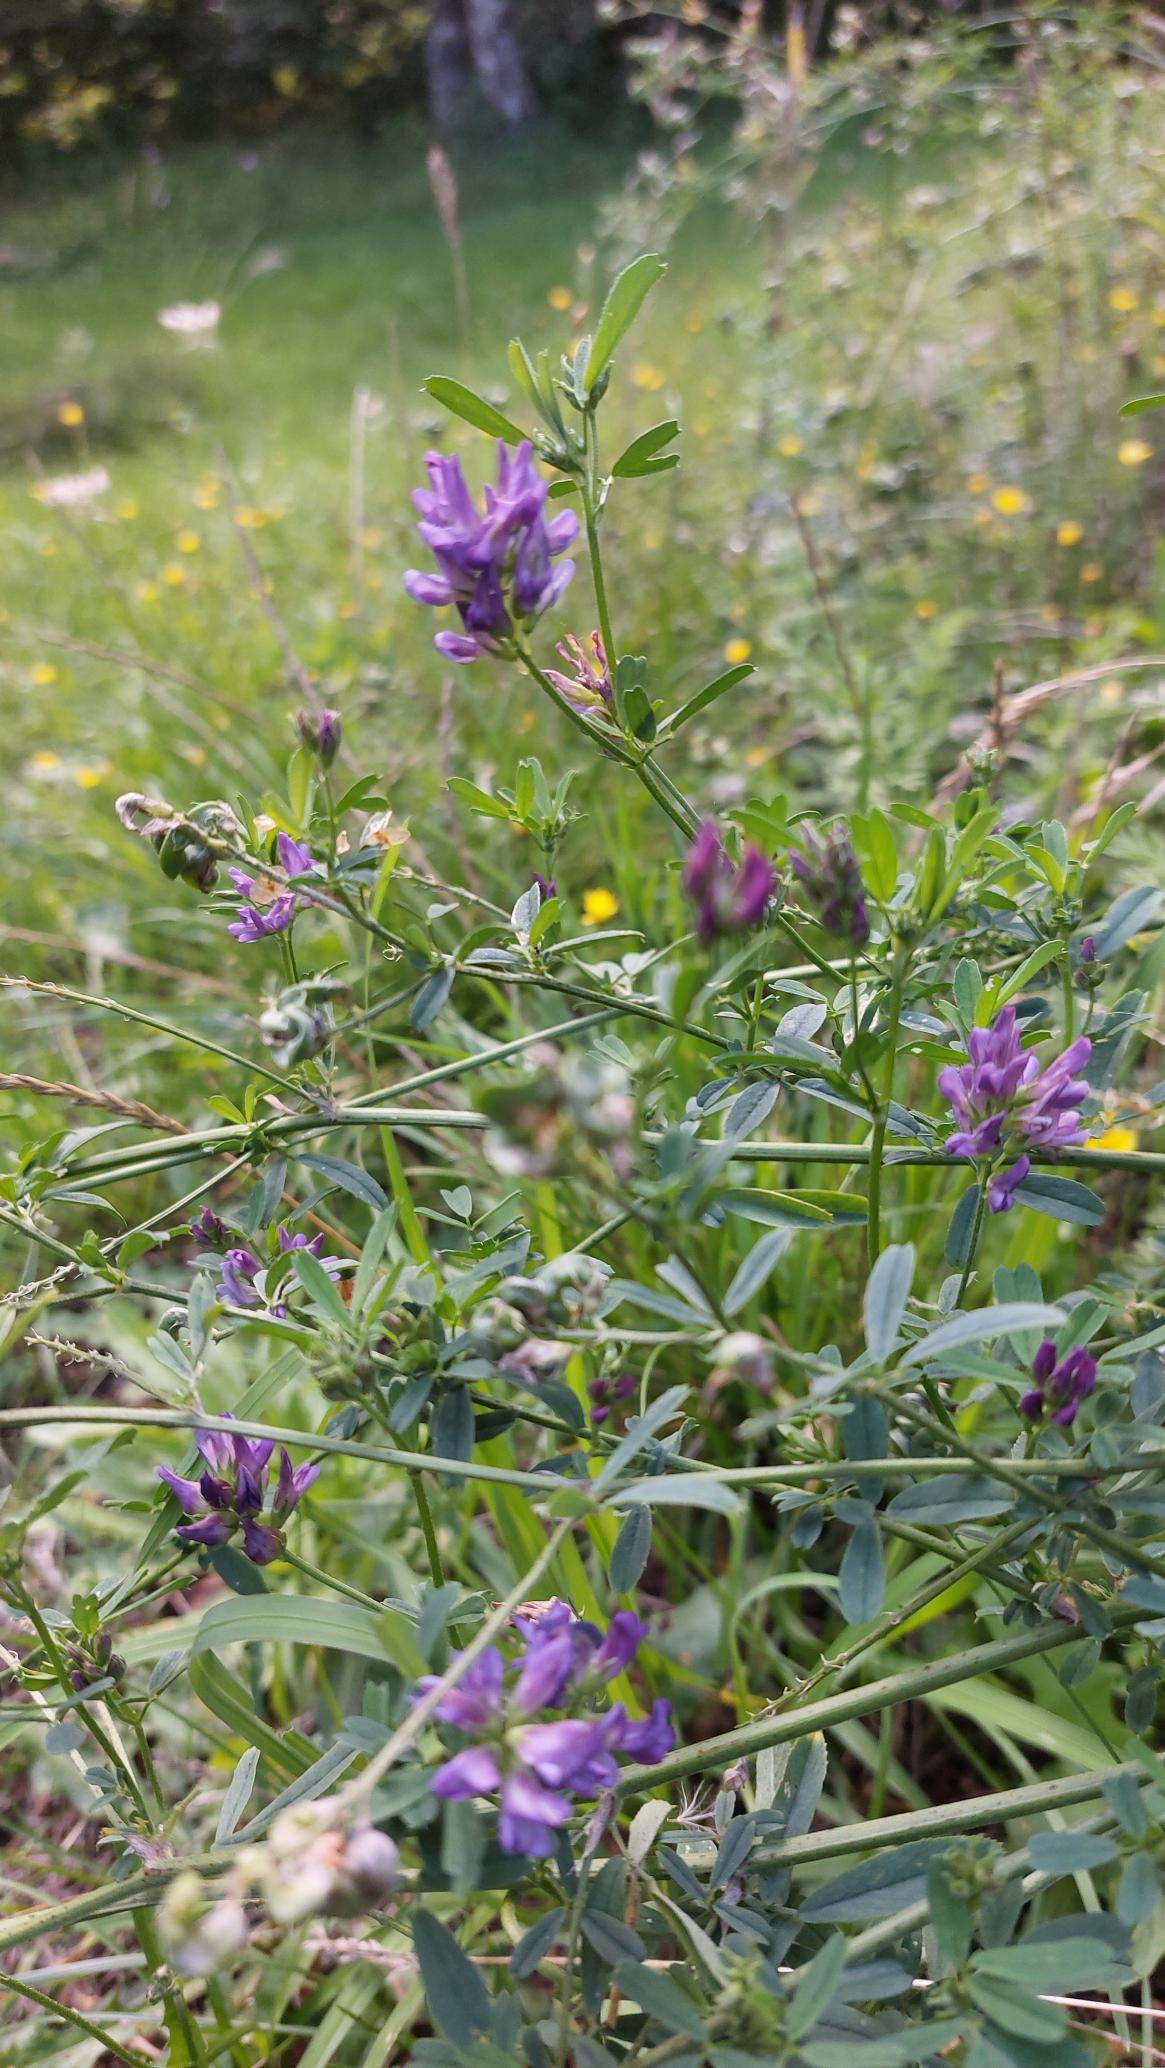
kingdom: Plantae
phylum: Tracheophyta
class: Magnoliopsida
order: Fabales
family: Fabaceae
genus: Medicago
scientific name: Medicago sativa
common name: Lucerne
